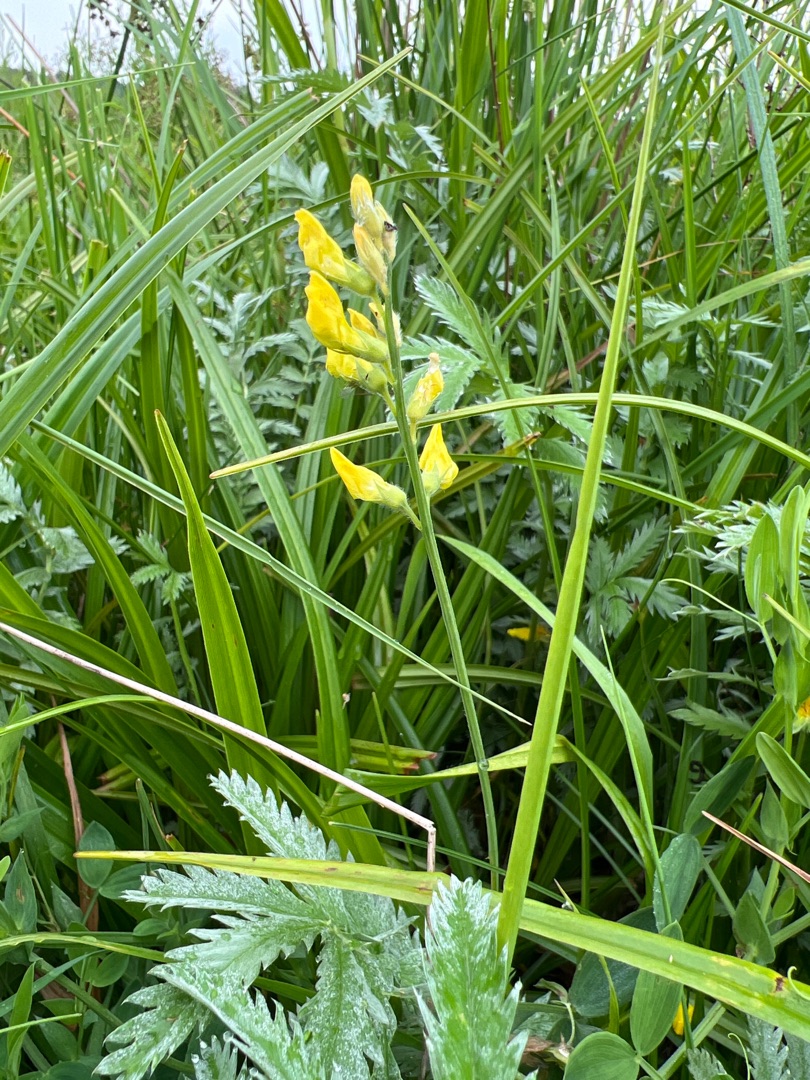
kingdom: Plantae
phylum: Tracheophyta
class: Magnoliopsida
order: Fabales
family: Fabaceae
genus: Lathyrus
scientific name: Lathyrus pratensis
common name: Gul fladbælg
